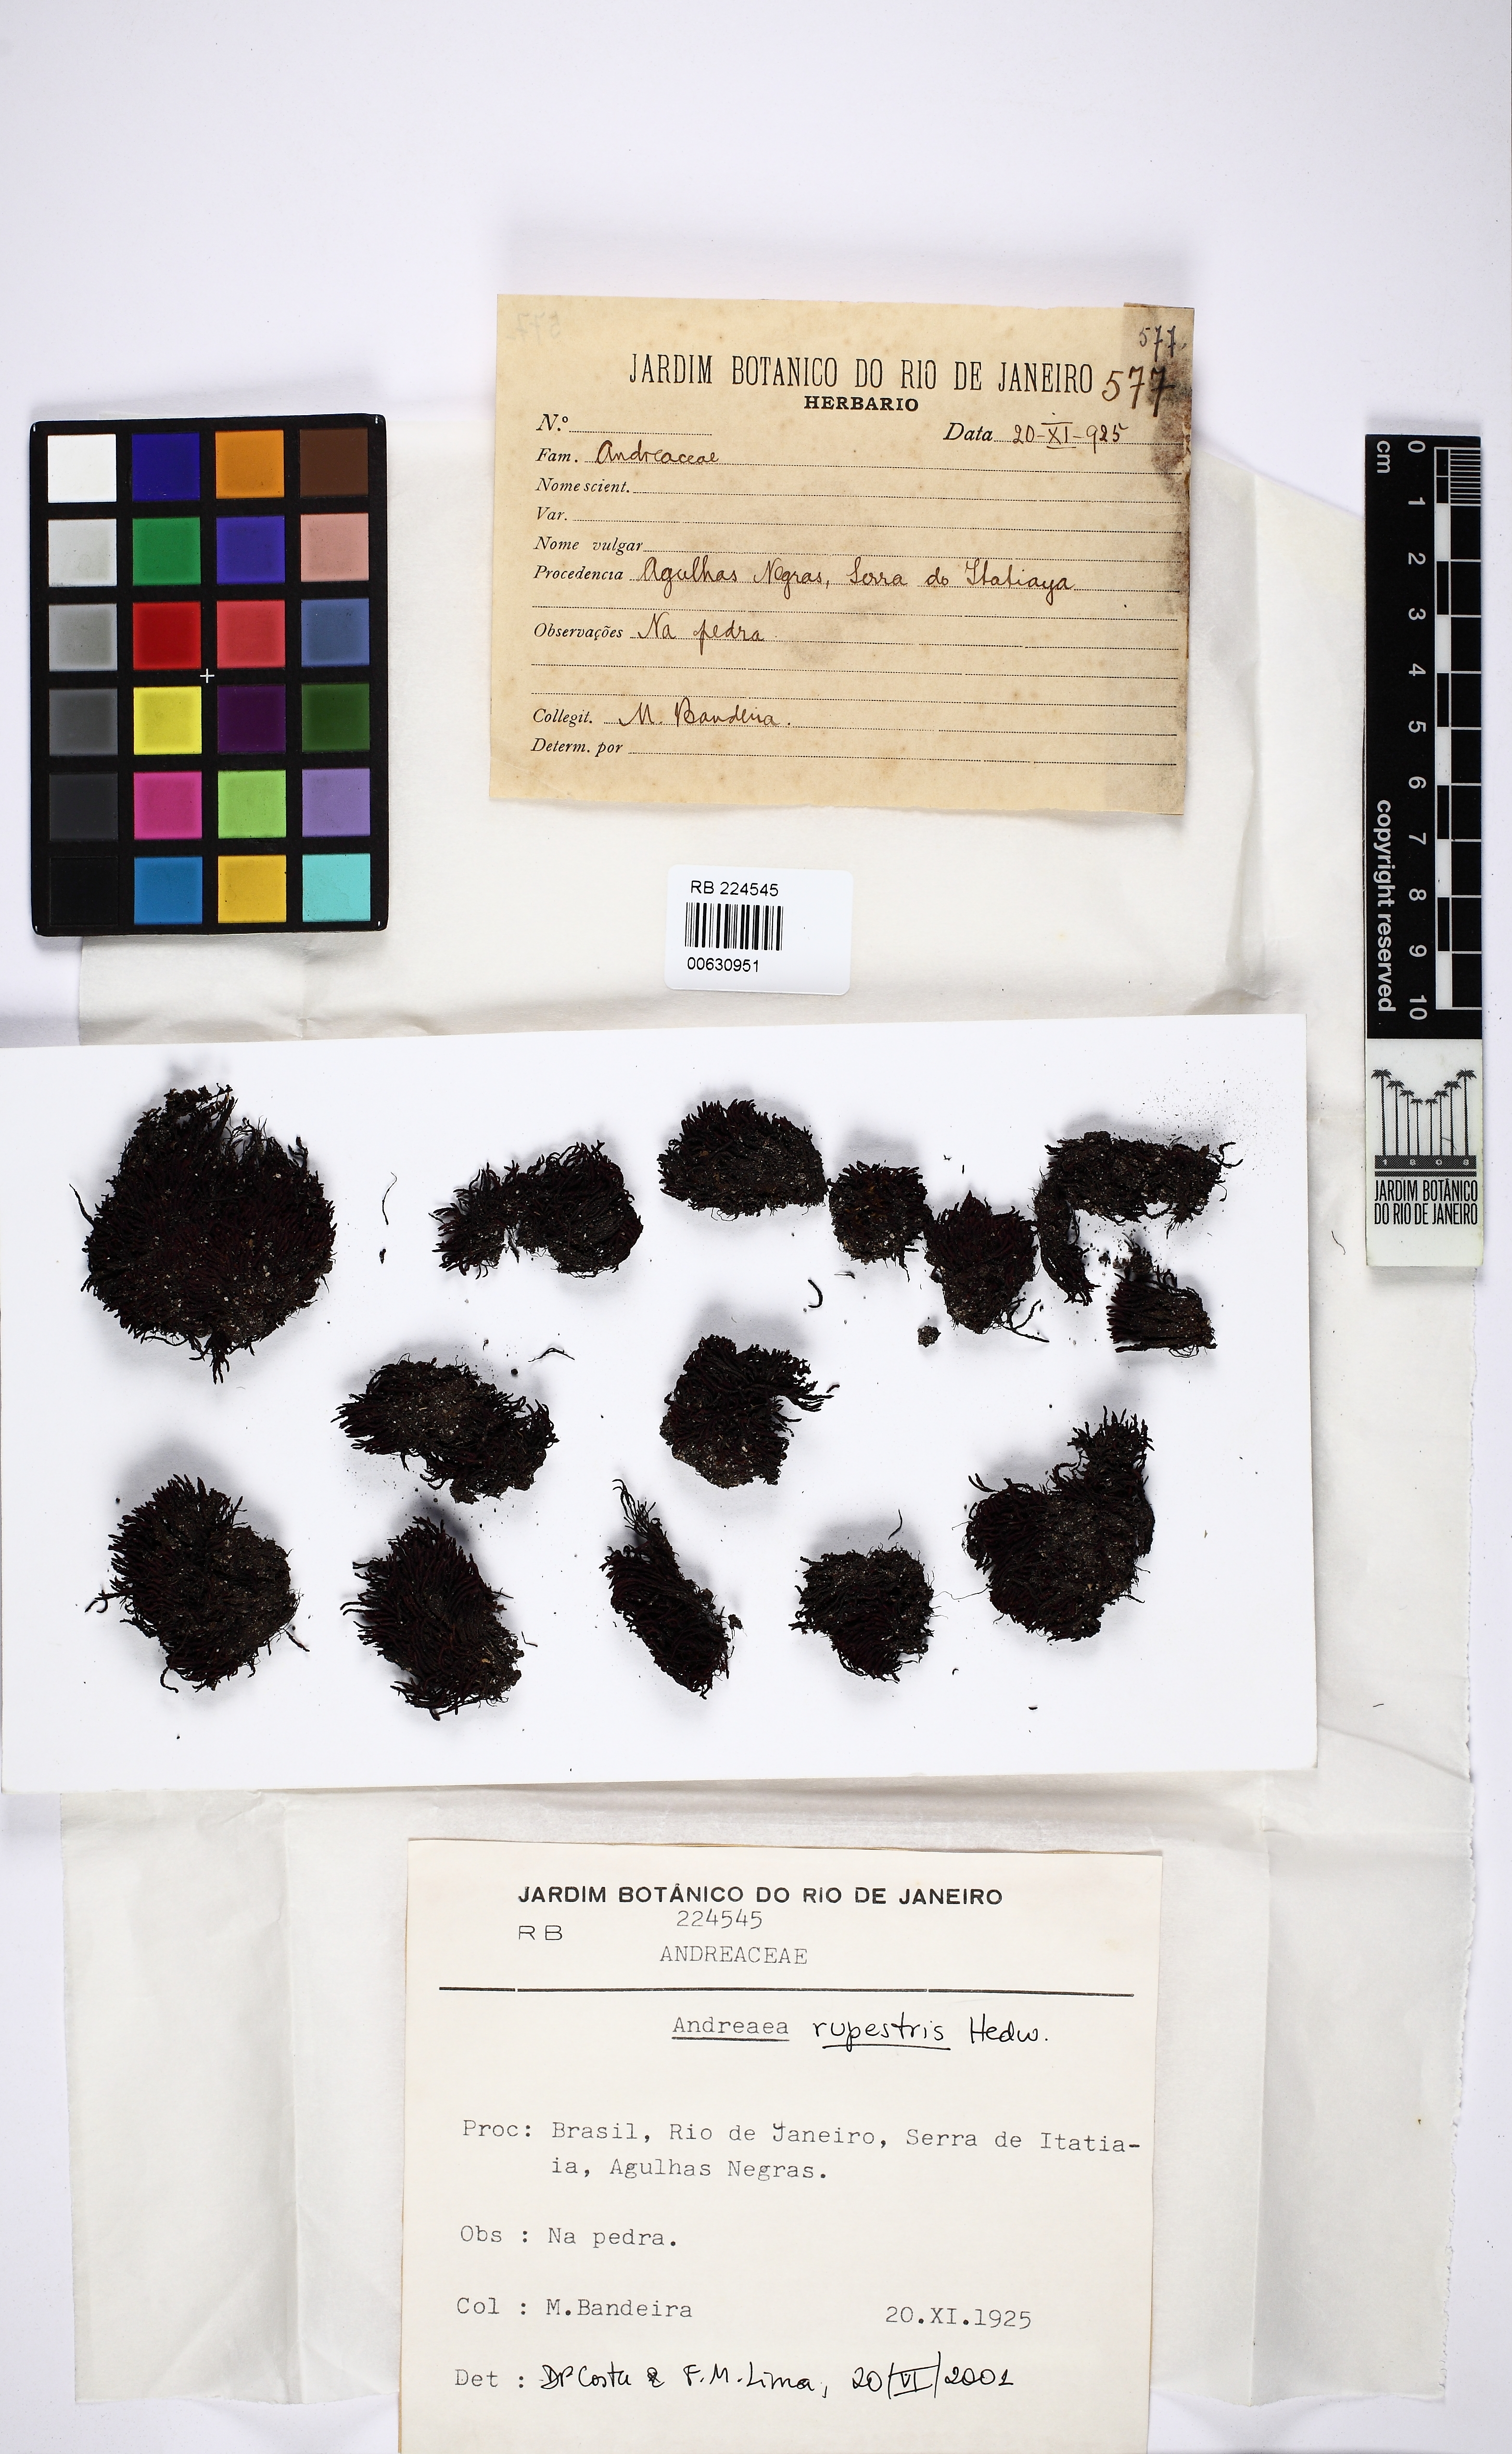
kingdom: Plantae
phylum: Bryophyta
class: Andreaeopsida
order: Andreaeales
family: Andreaeaceae
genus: Andreaea
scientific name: Andreaea rupestris
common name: Black rock moss
